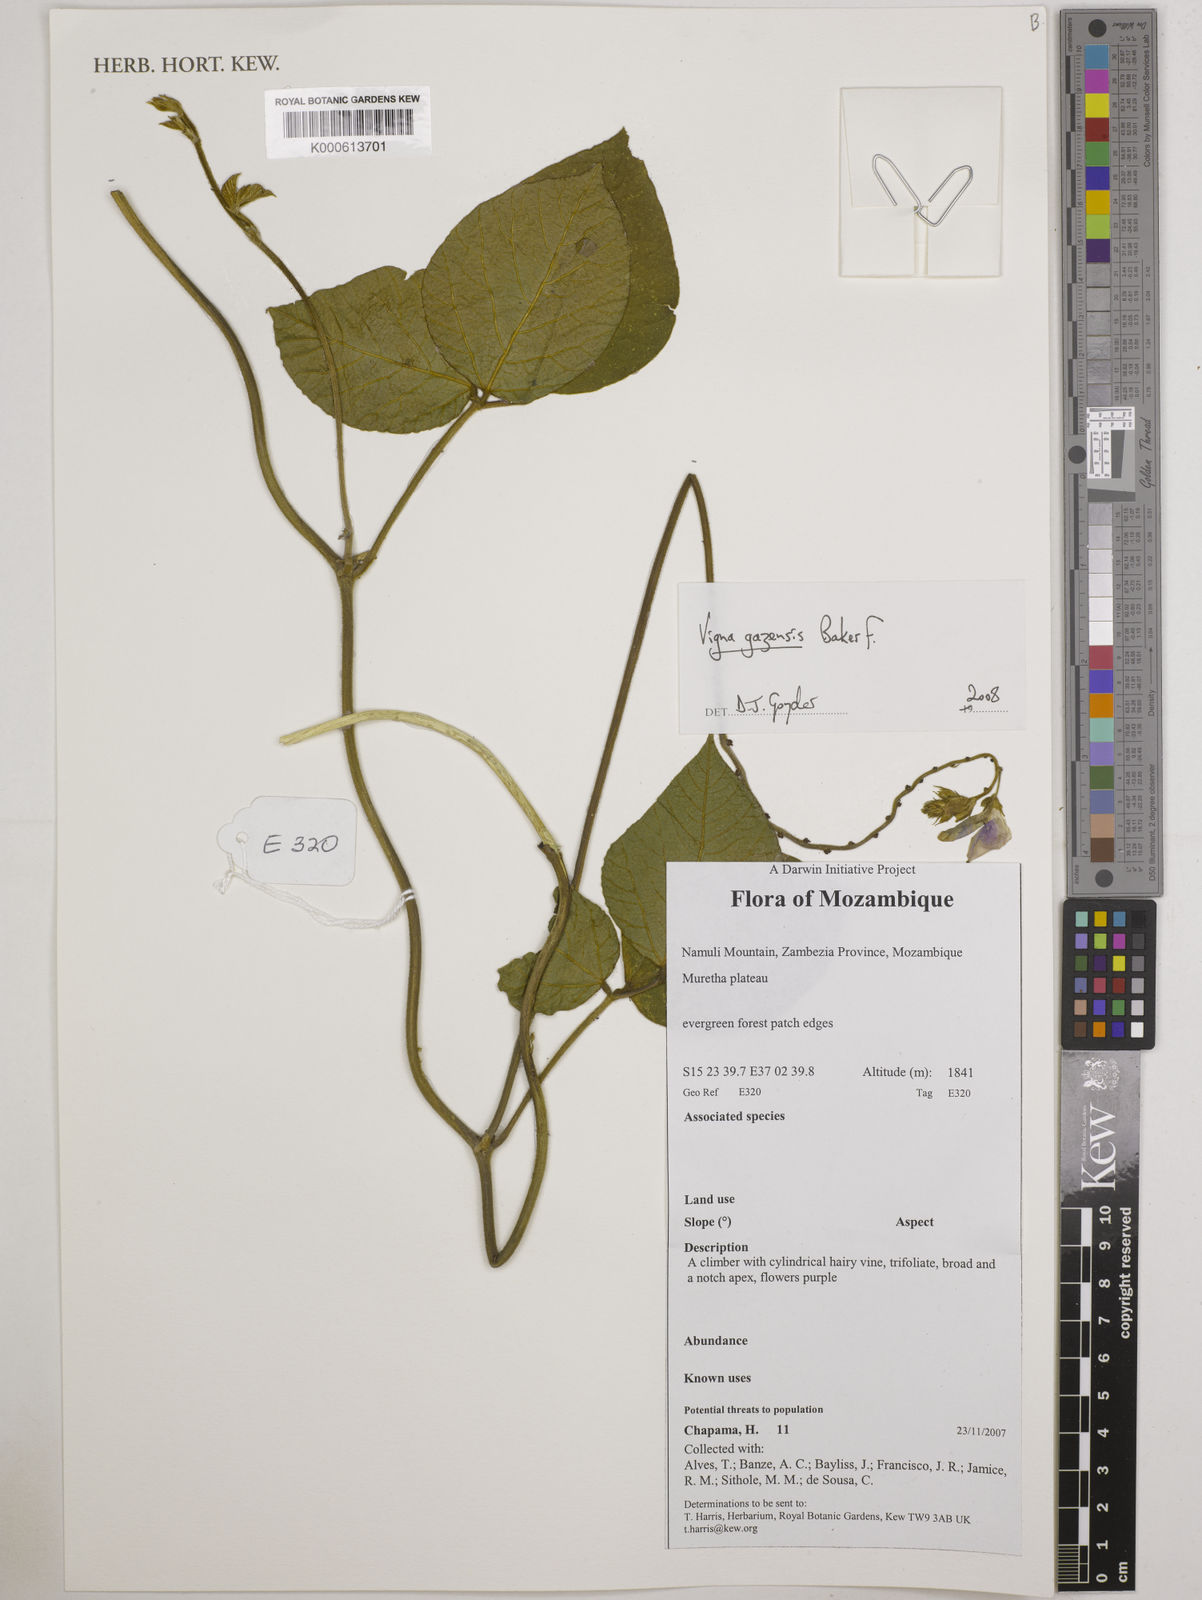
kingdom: Plantae
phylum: Tracheophyta
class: Magnoliopsida
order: Fabales
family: Fabaceae
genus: Vigna
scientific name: Vigna gazensis
